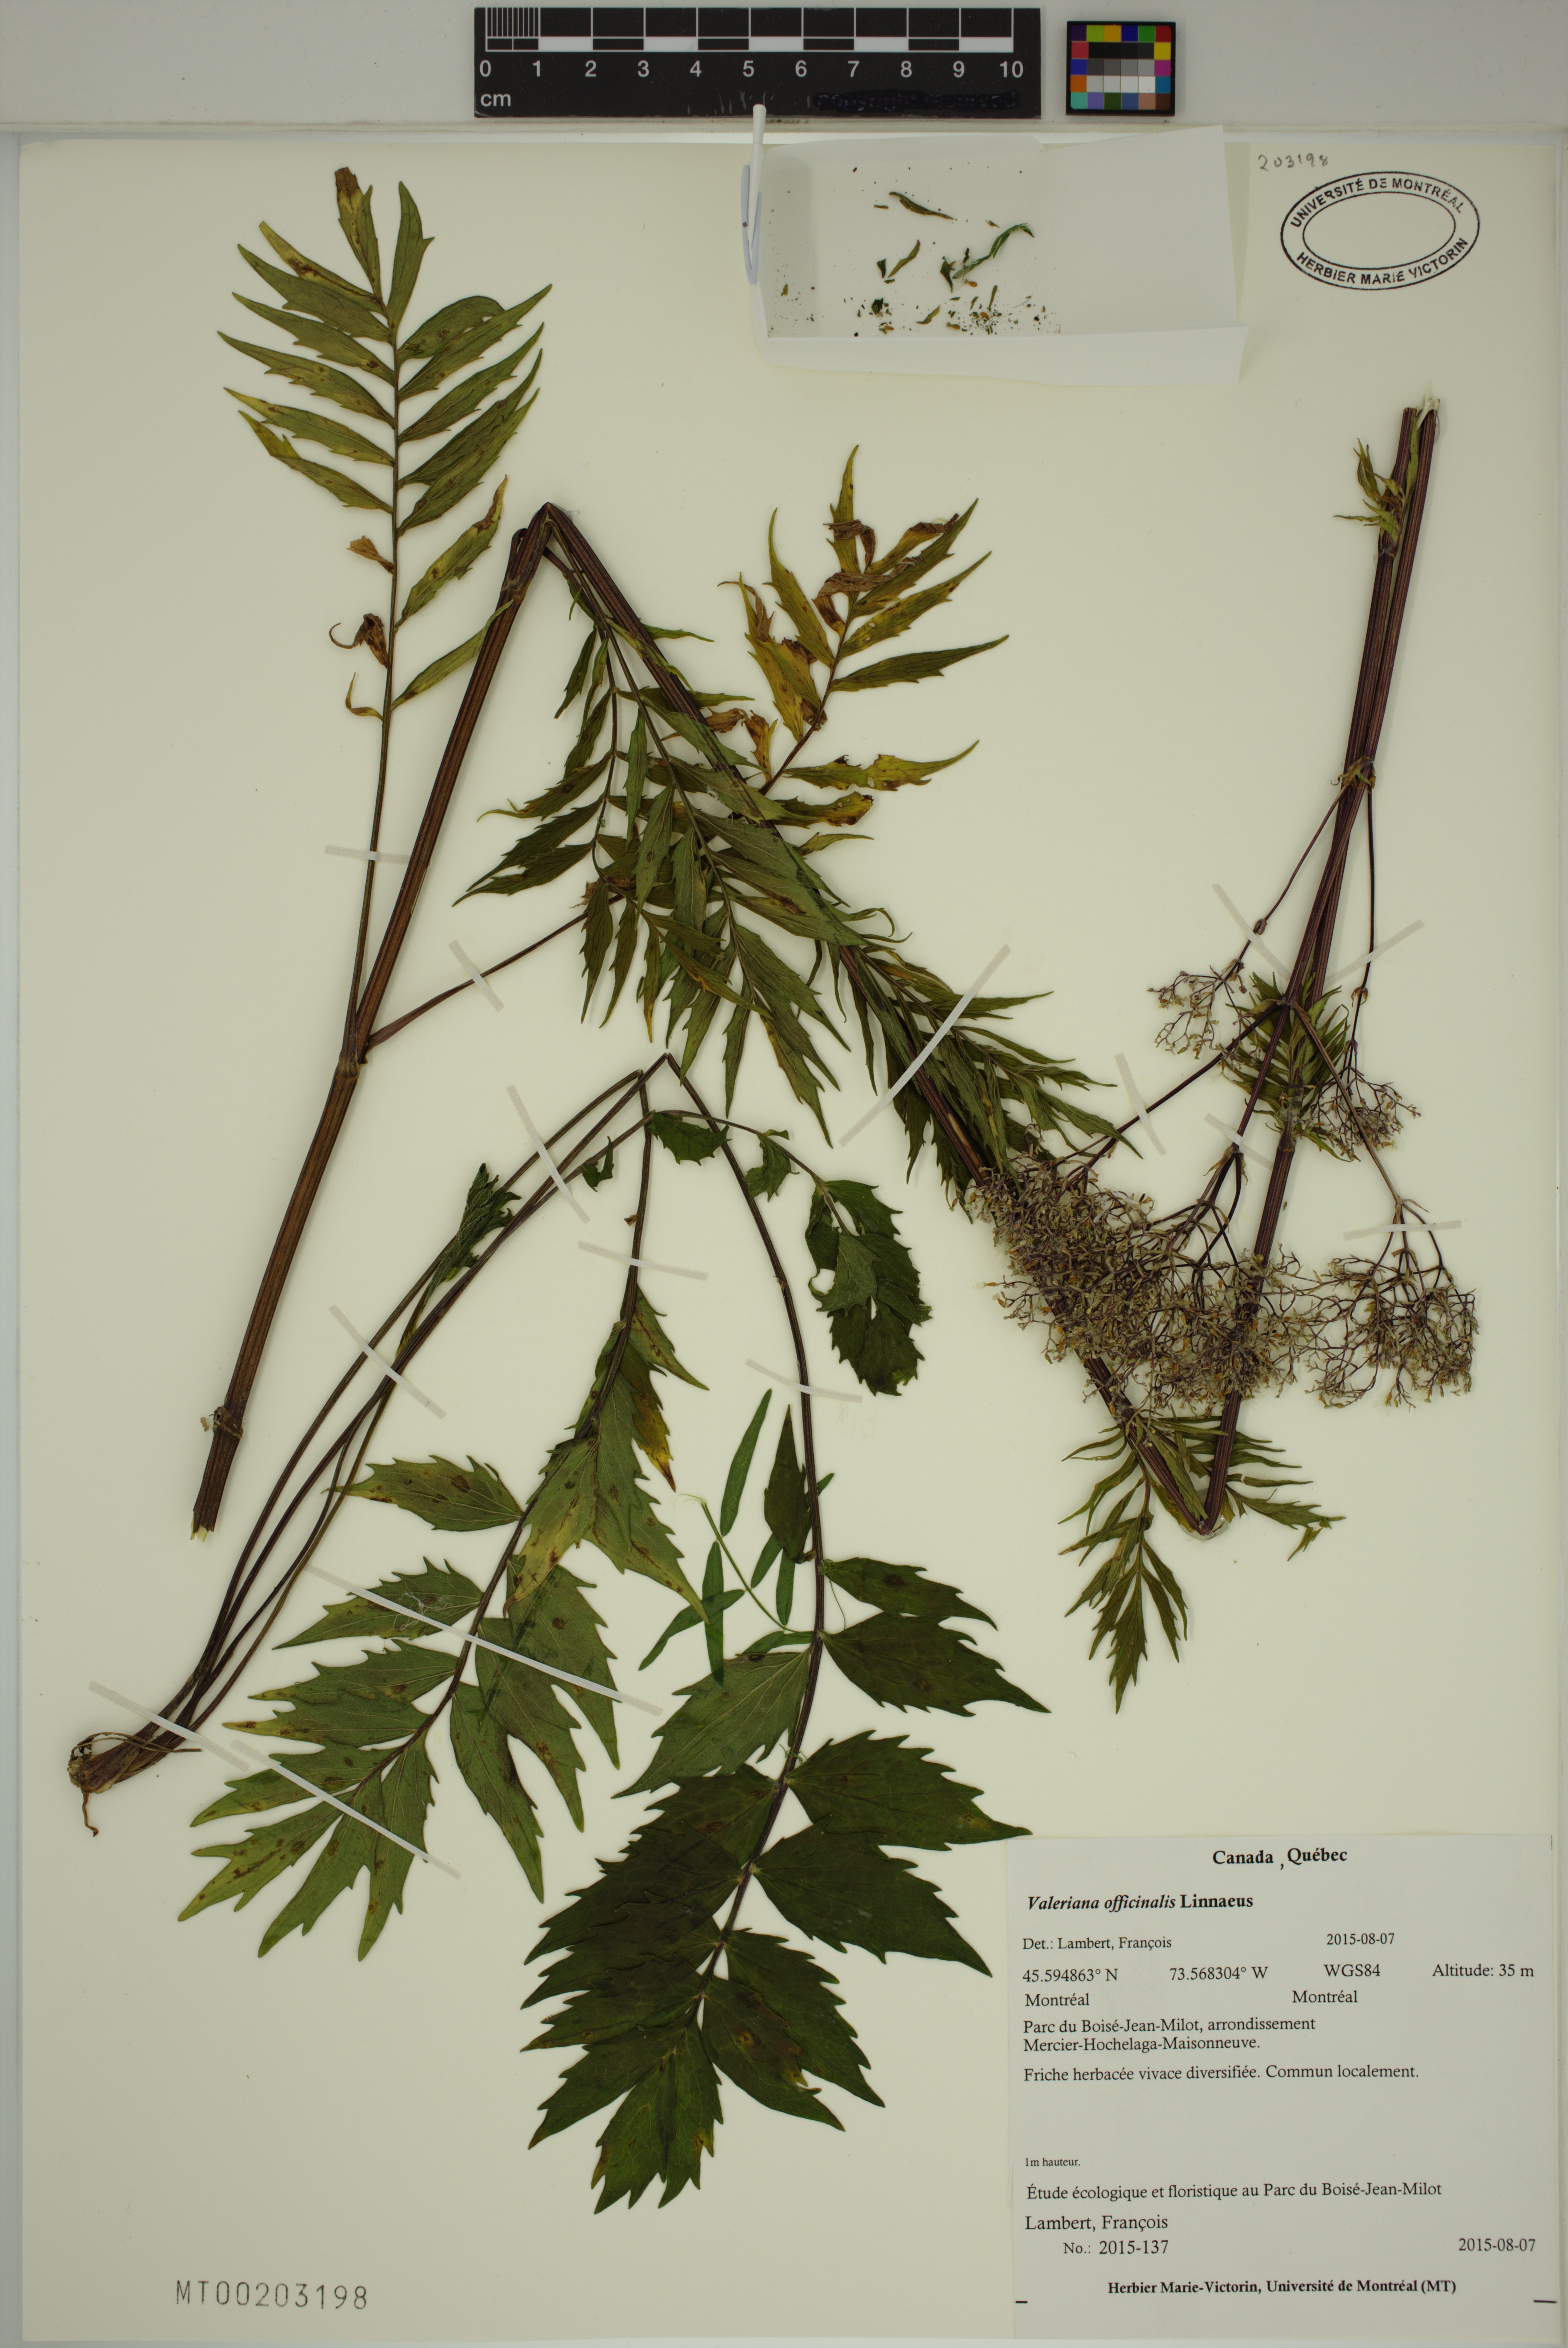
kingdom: Plantae
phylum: Tracheophyta
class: Magnoliopsida
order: Dipsacales
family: Caprifoliaceae
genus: Valeriana
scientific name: Valeriana officinalis
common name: Common valerian
